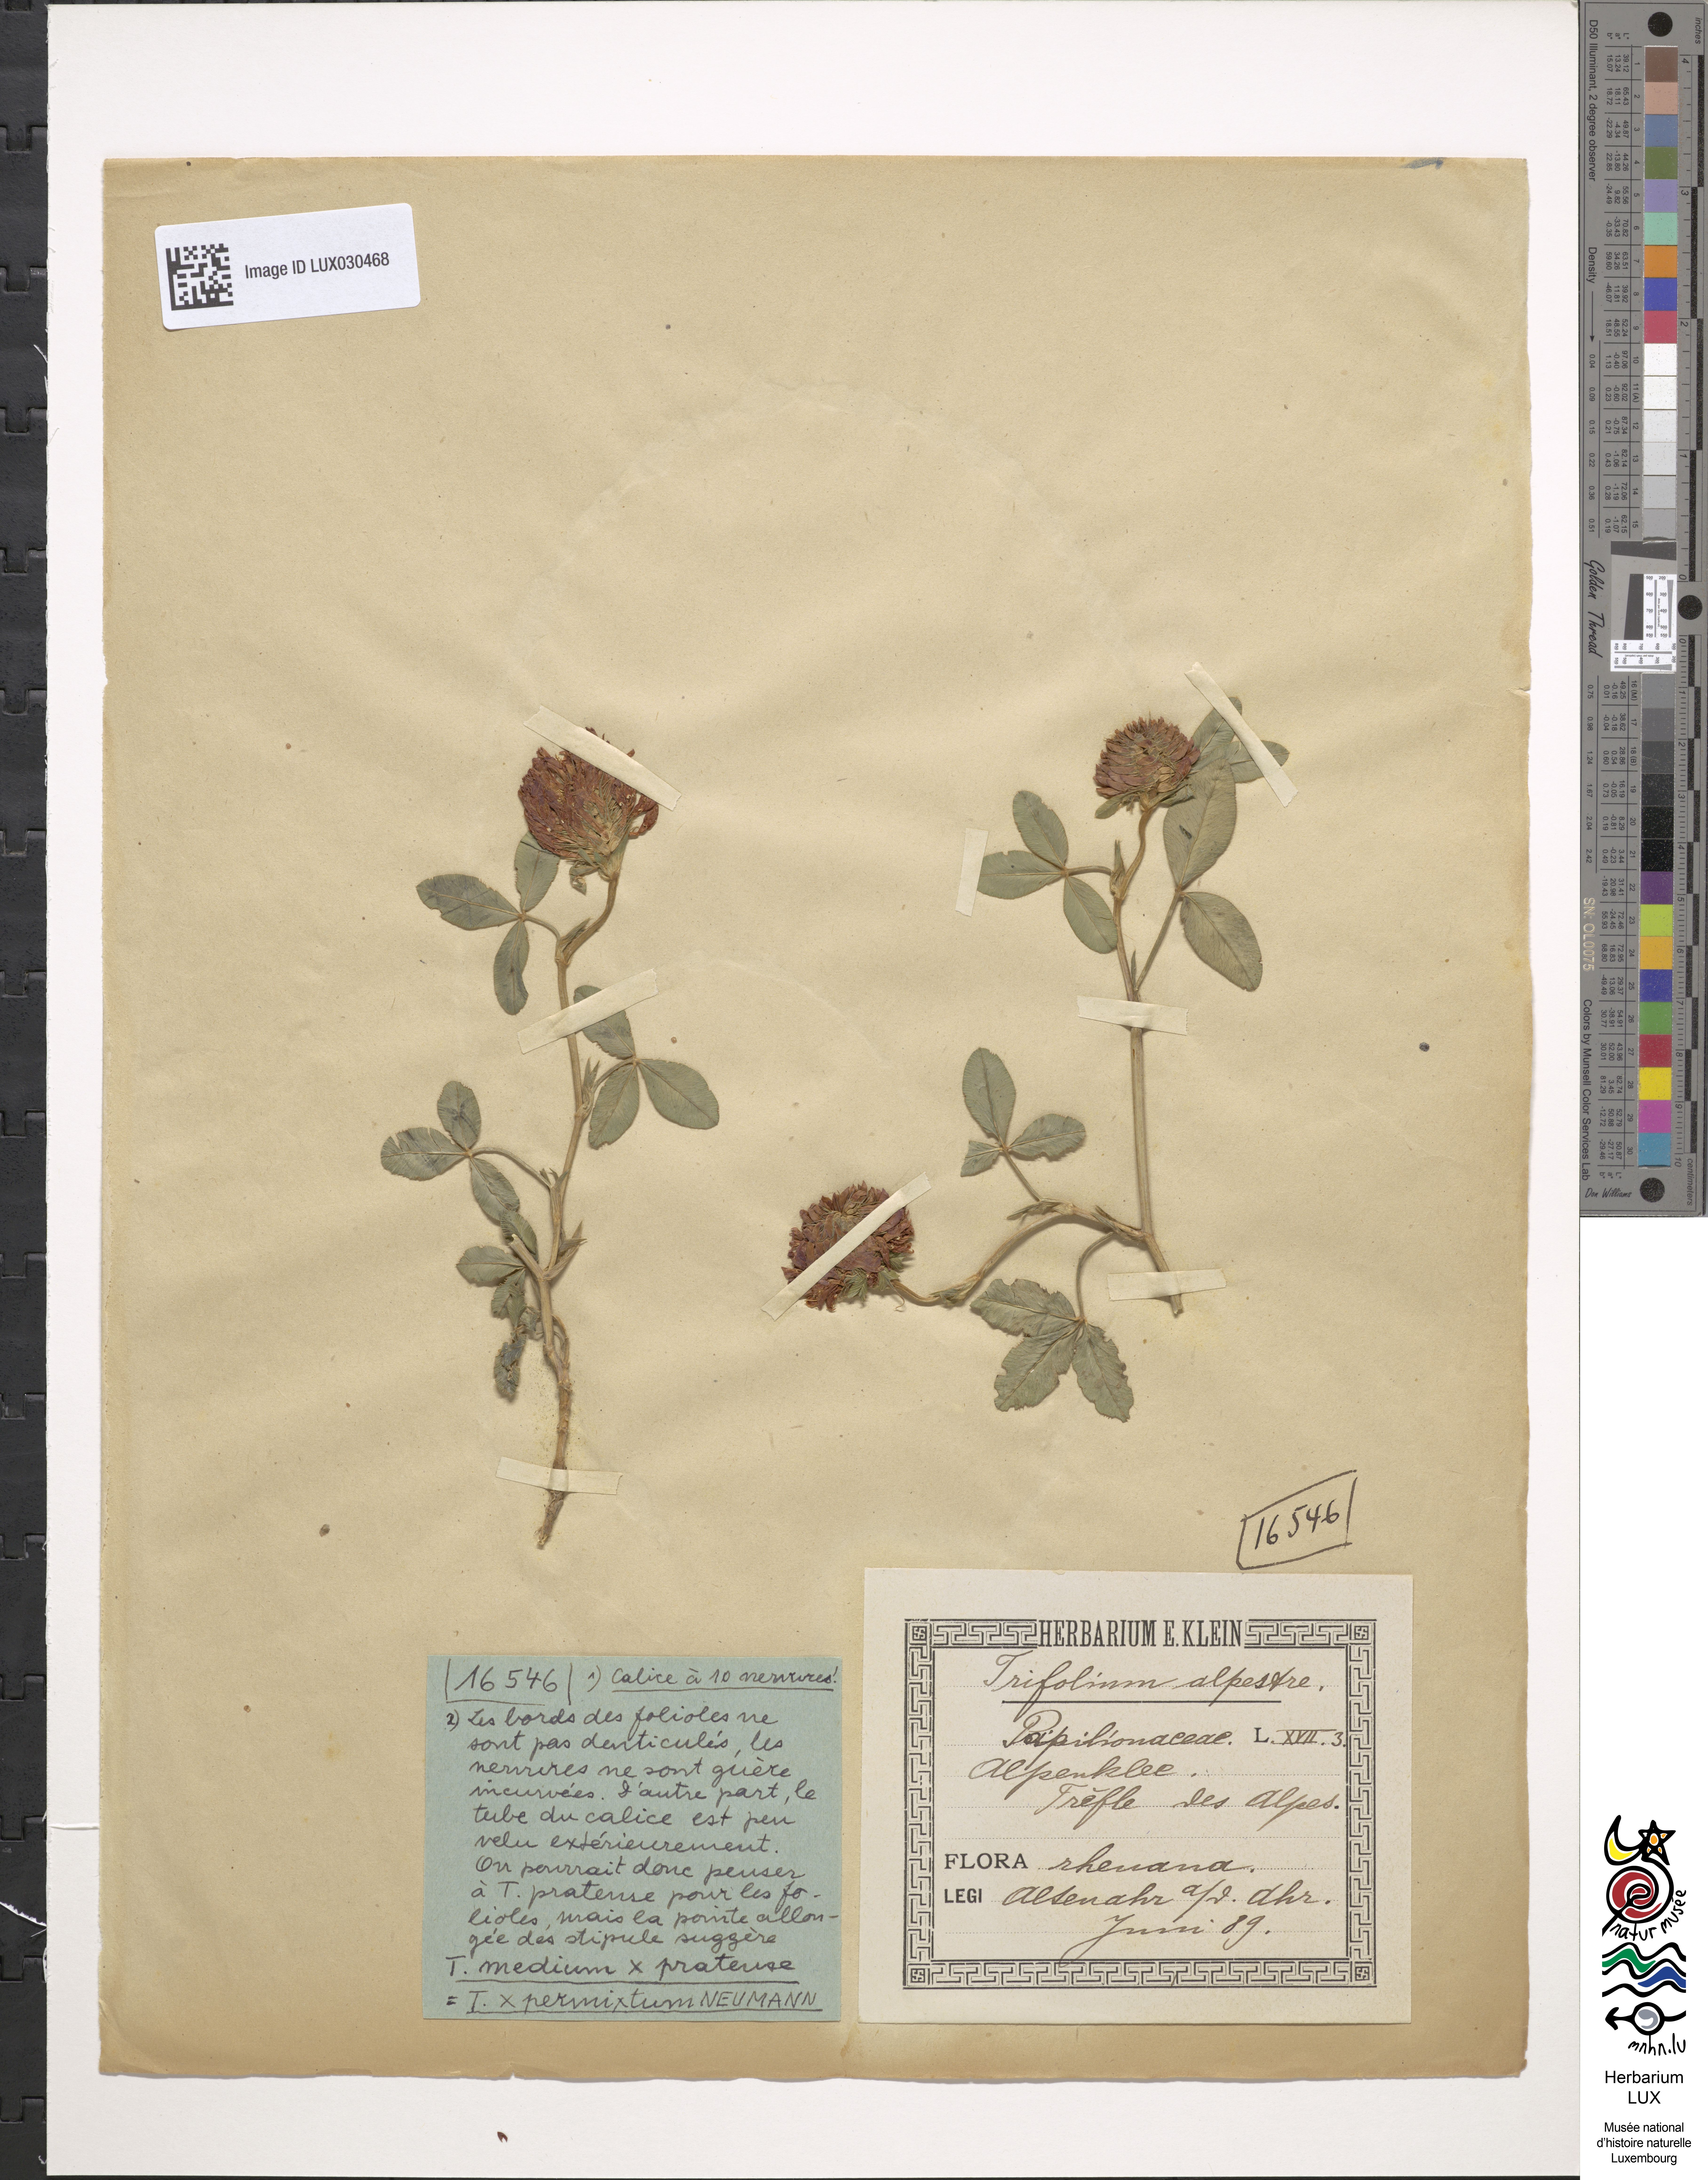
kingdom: Plantae
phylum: Tracheophyta
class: Magnoliopsida
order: Fabales
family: Fabaceae
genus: Trifolium
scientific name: Trifolium permixtum
